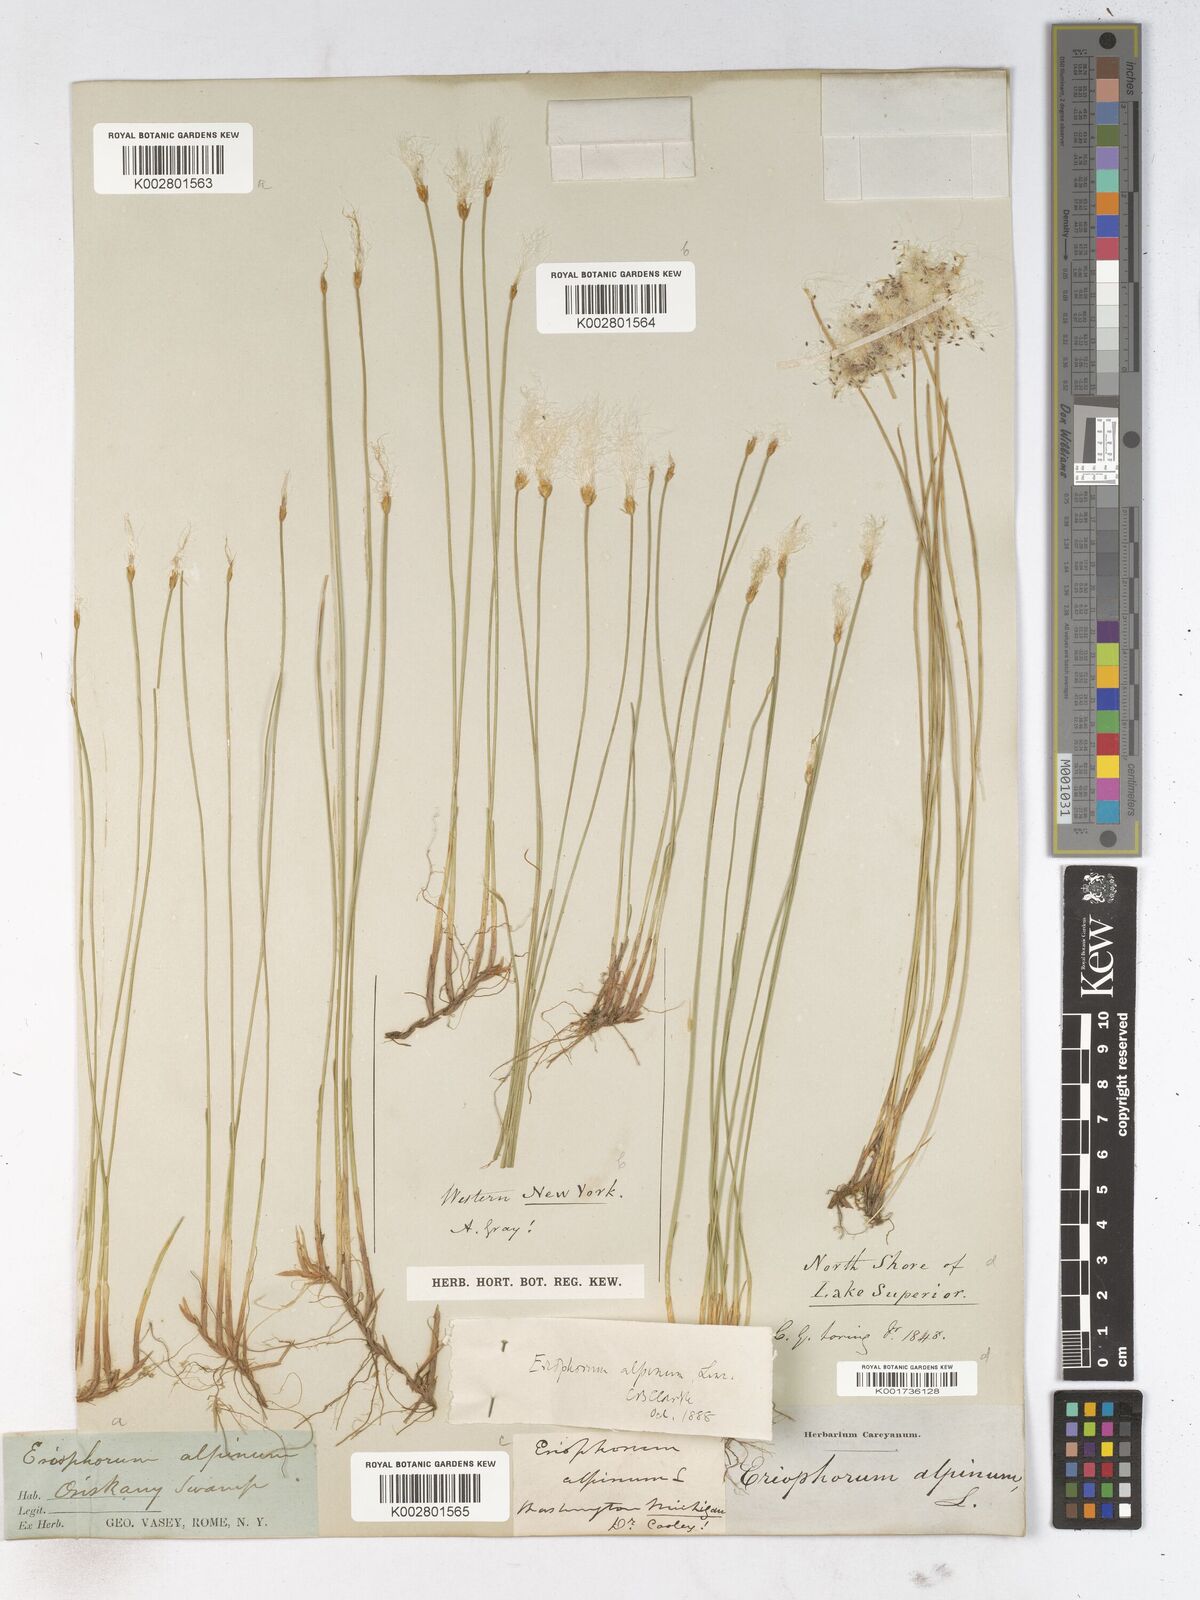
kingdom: Plantae
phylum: Tracheophyta
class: Liliopsida
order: Poales
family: Cyperaceae
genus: Trichophorum
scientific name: Trichophorum alpinum
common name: Alpine bulrush
